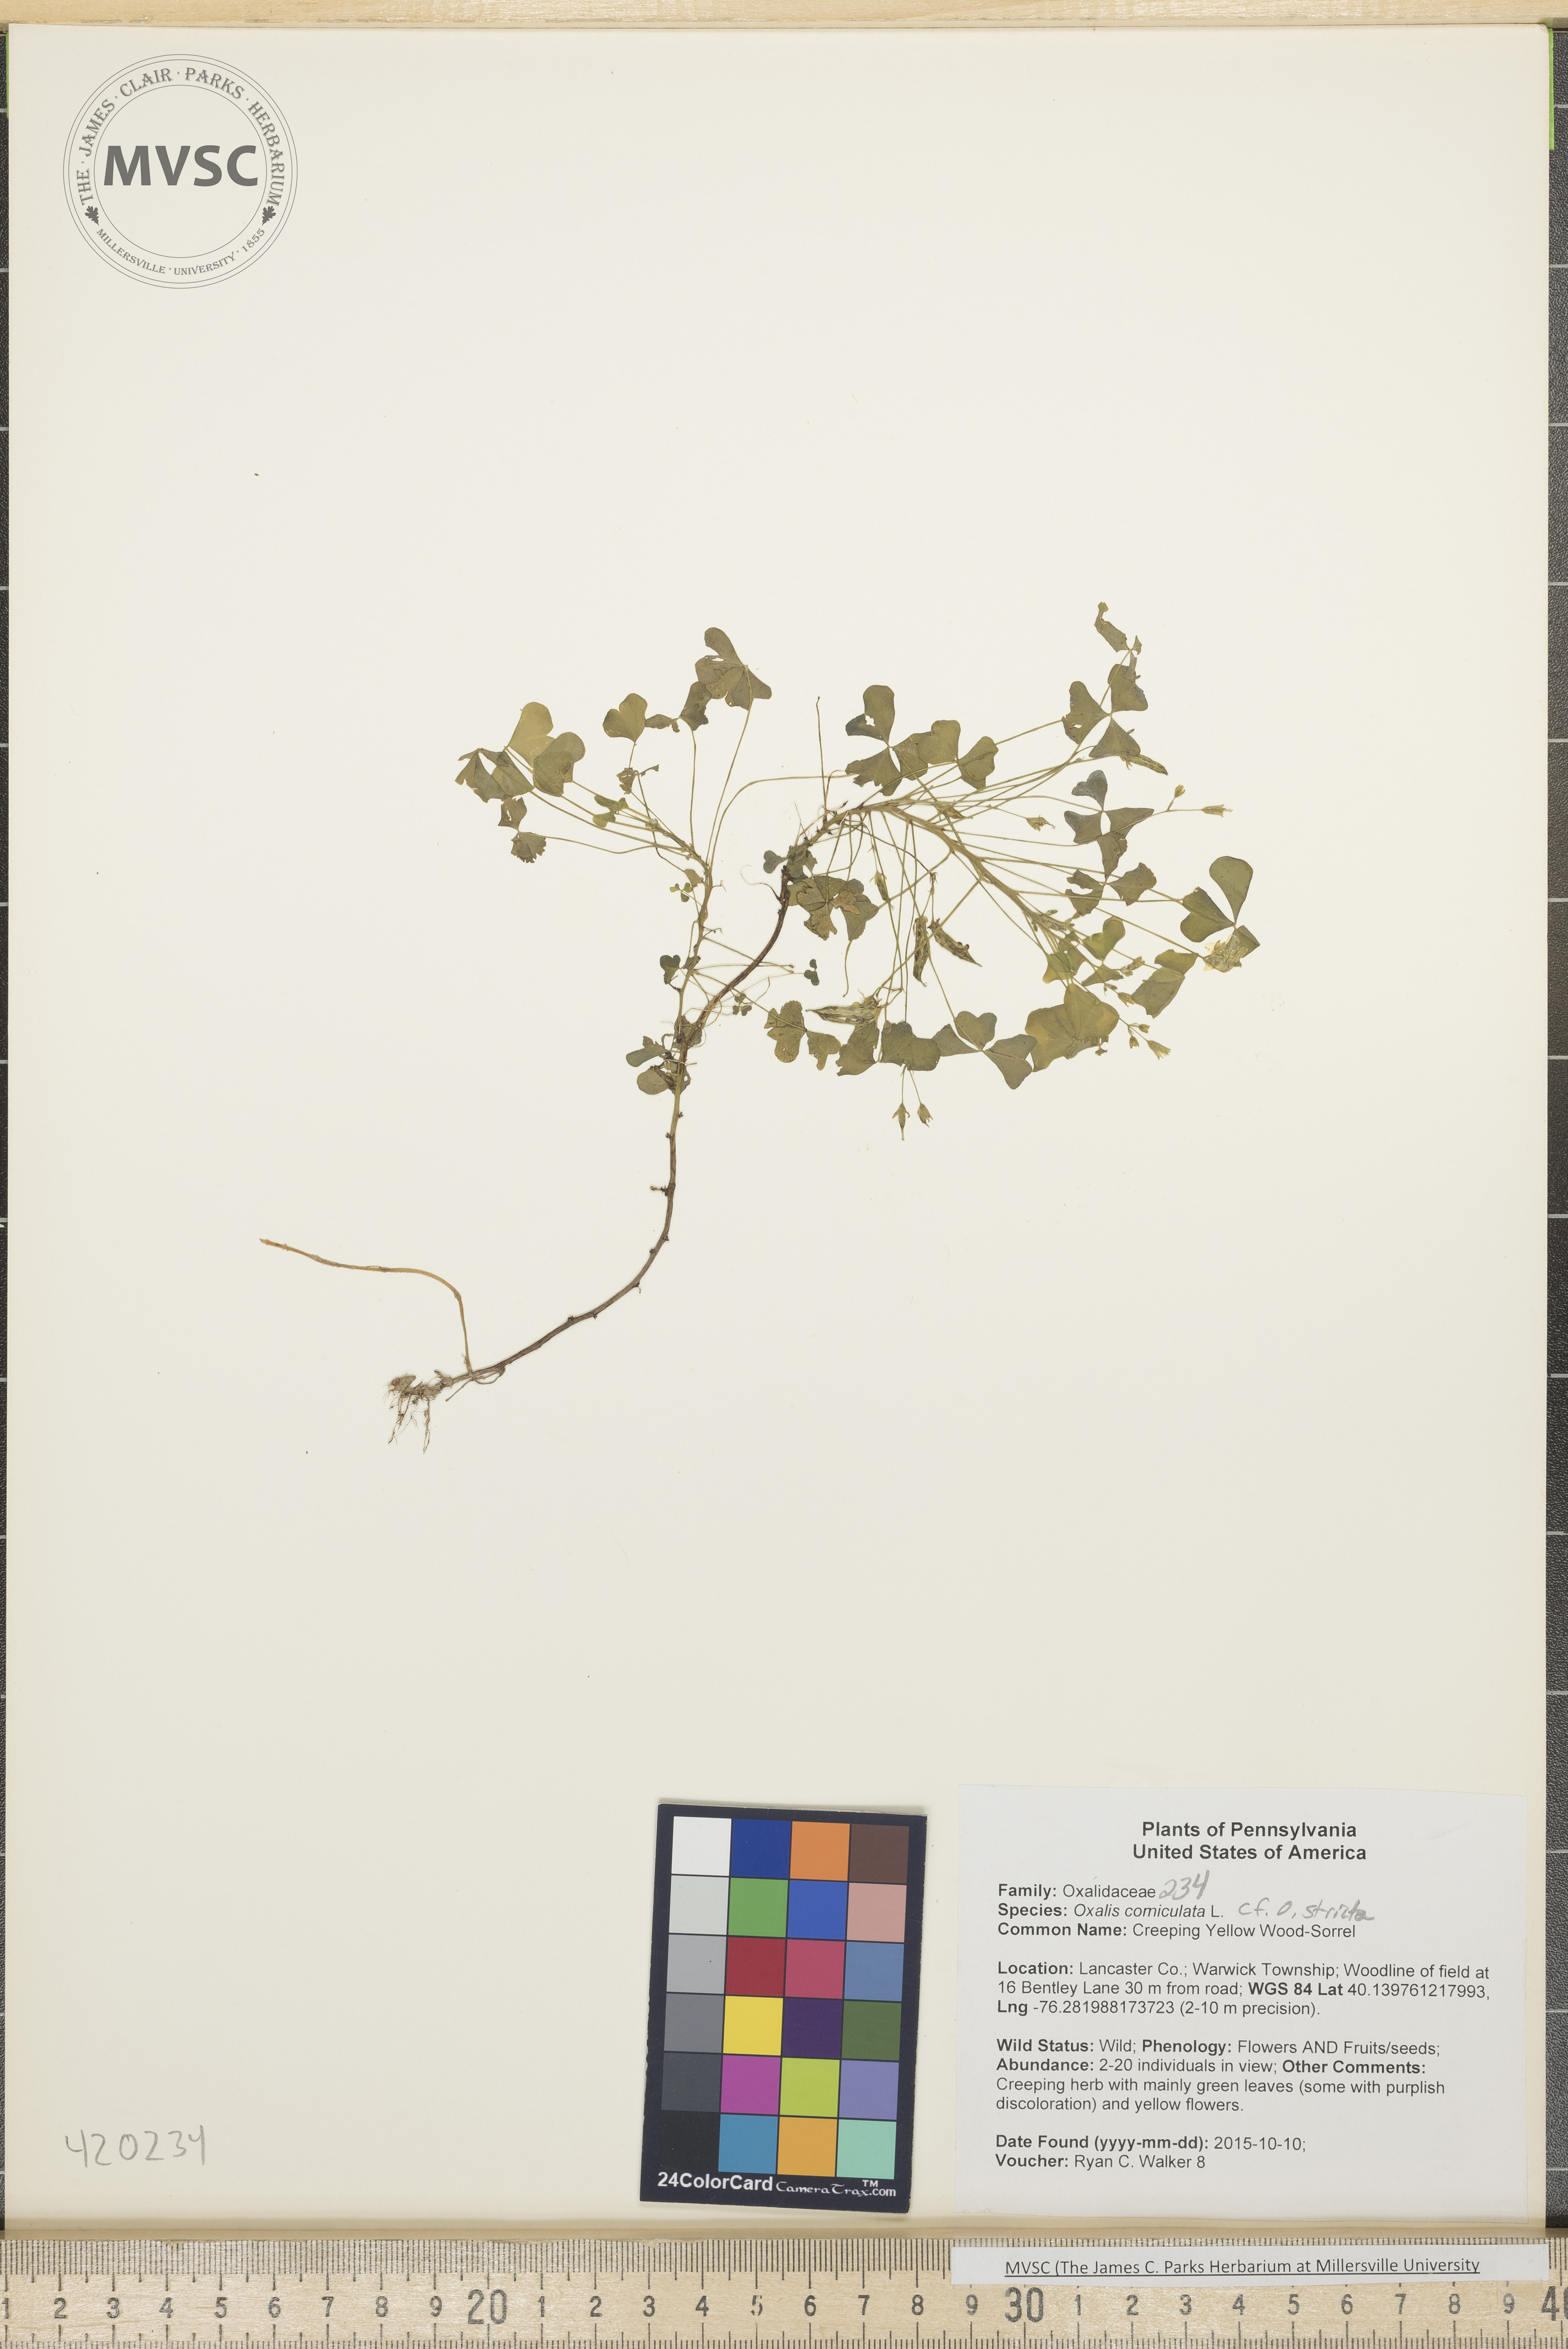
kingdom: Plantae
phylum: Tracheophyta
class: Magnoliopsida
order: Oxalidales
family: Oxalidaceae
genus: Oxalis
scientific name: Oxalis corniculata
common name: Creeping Yellow Wood-Sorrel
